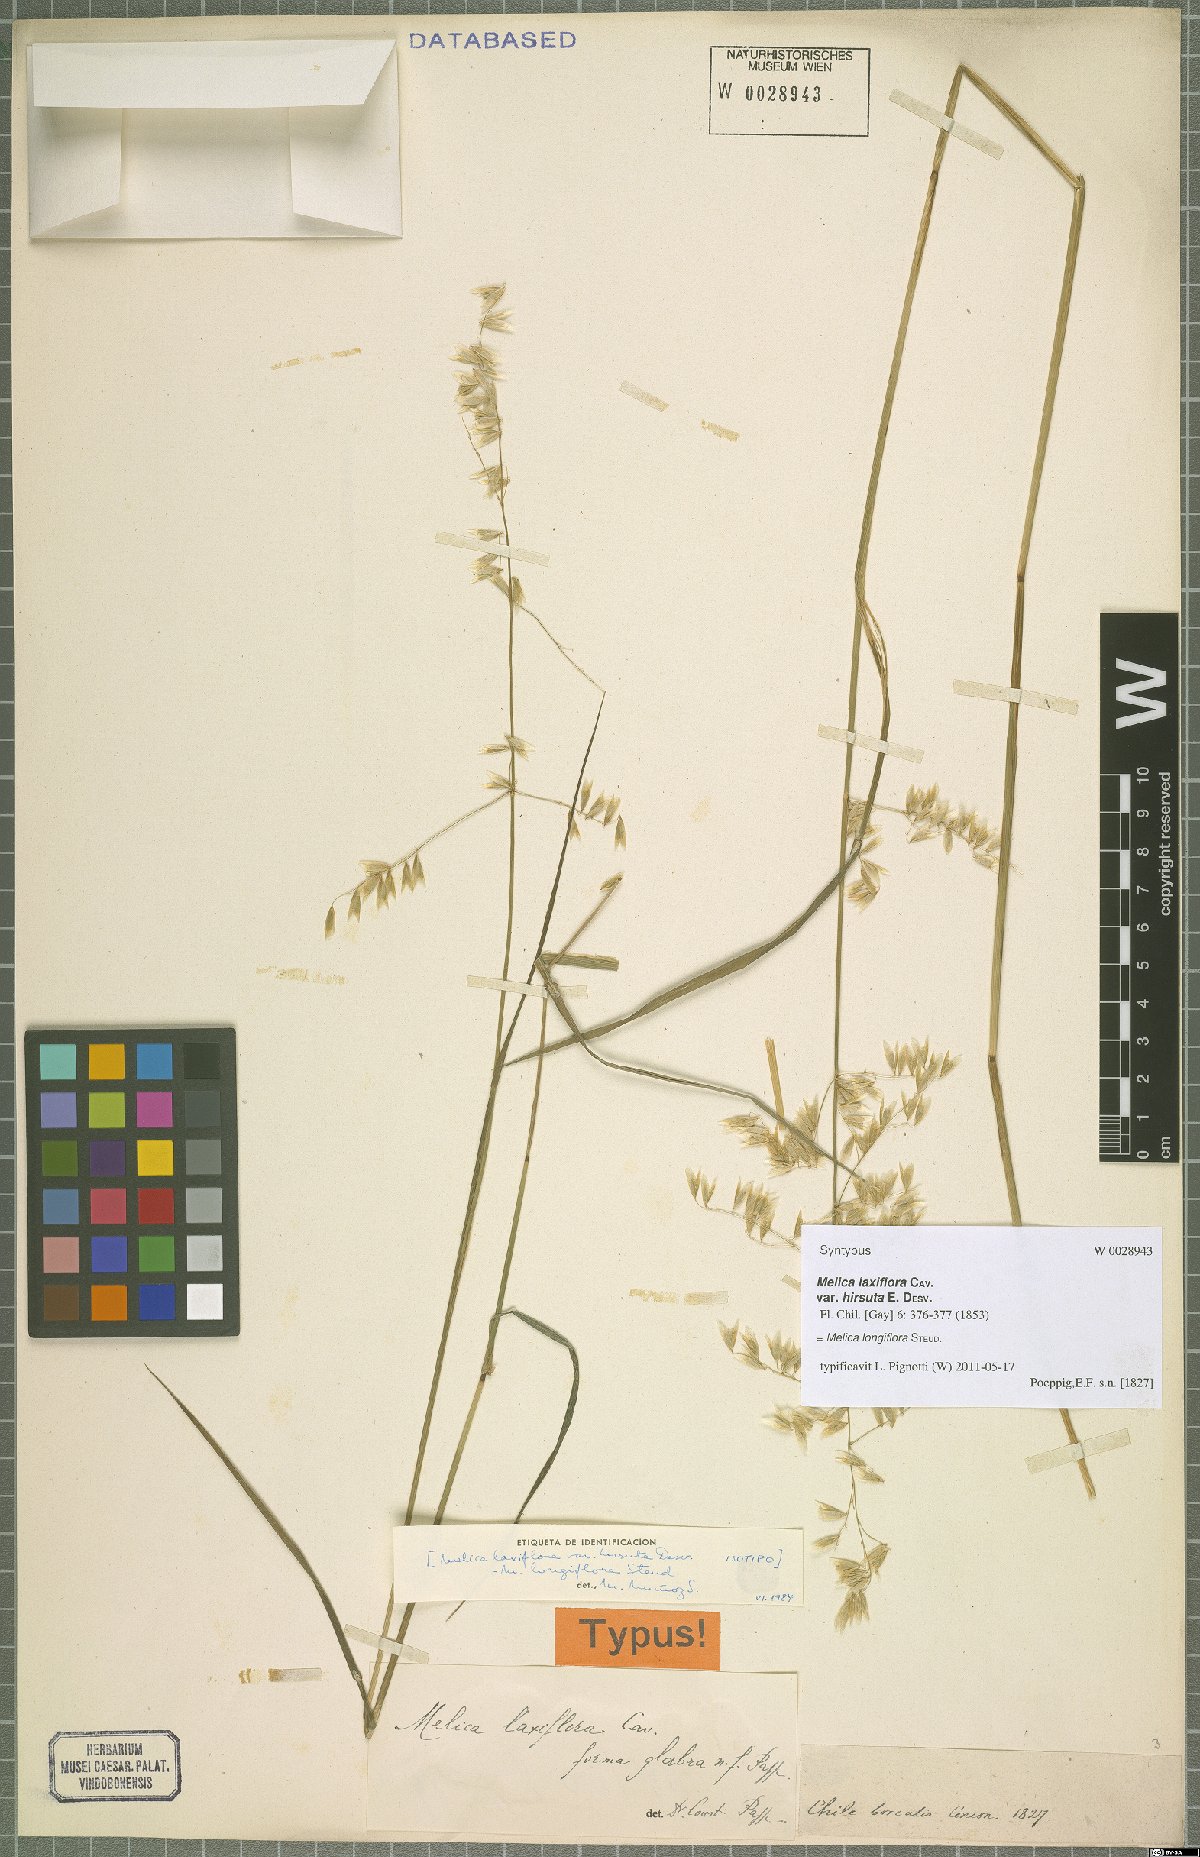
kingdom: Plantae
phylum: Tracheophyta
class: Liliopsida
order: Poales
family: Poaceae
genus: Melica
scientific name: Melica longiflora
